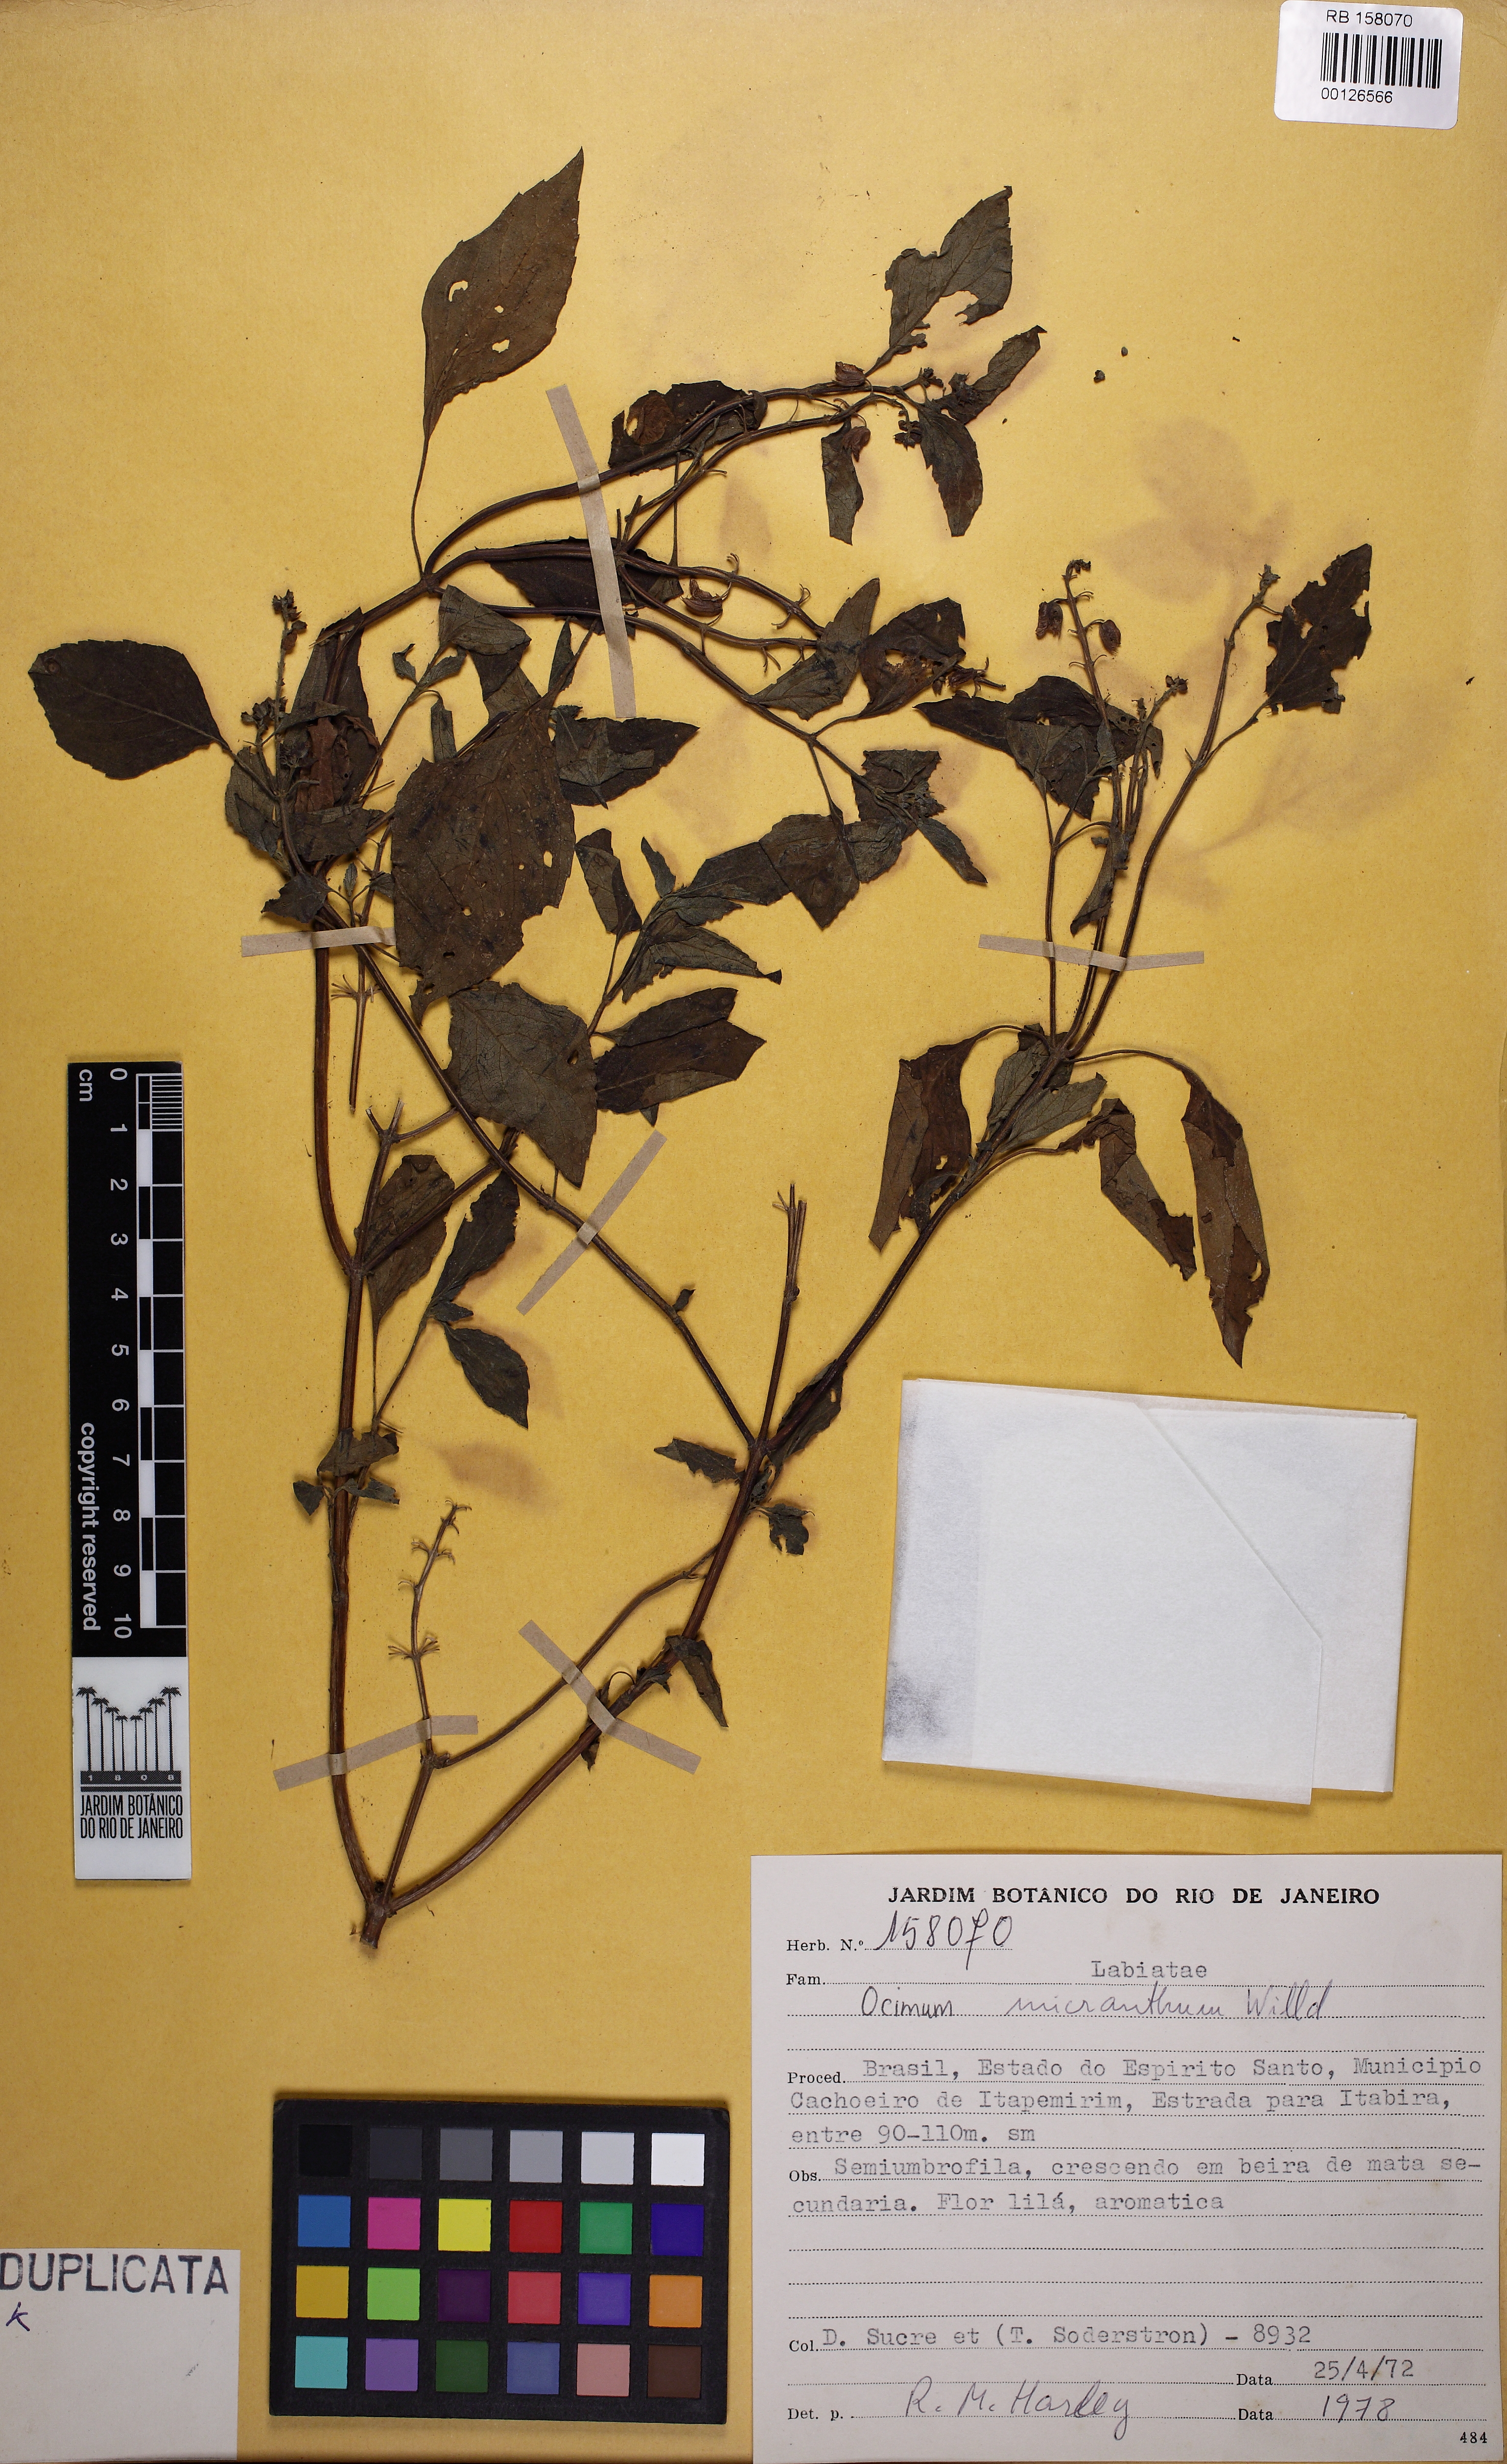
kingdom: Plantae
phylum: Tracheophyta
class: Magnoliopsida
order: Lamiales
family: Lamiaceae
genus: Ocimum
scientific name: Ocimum
